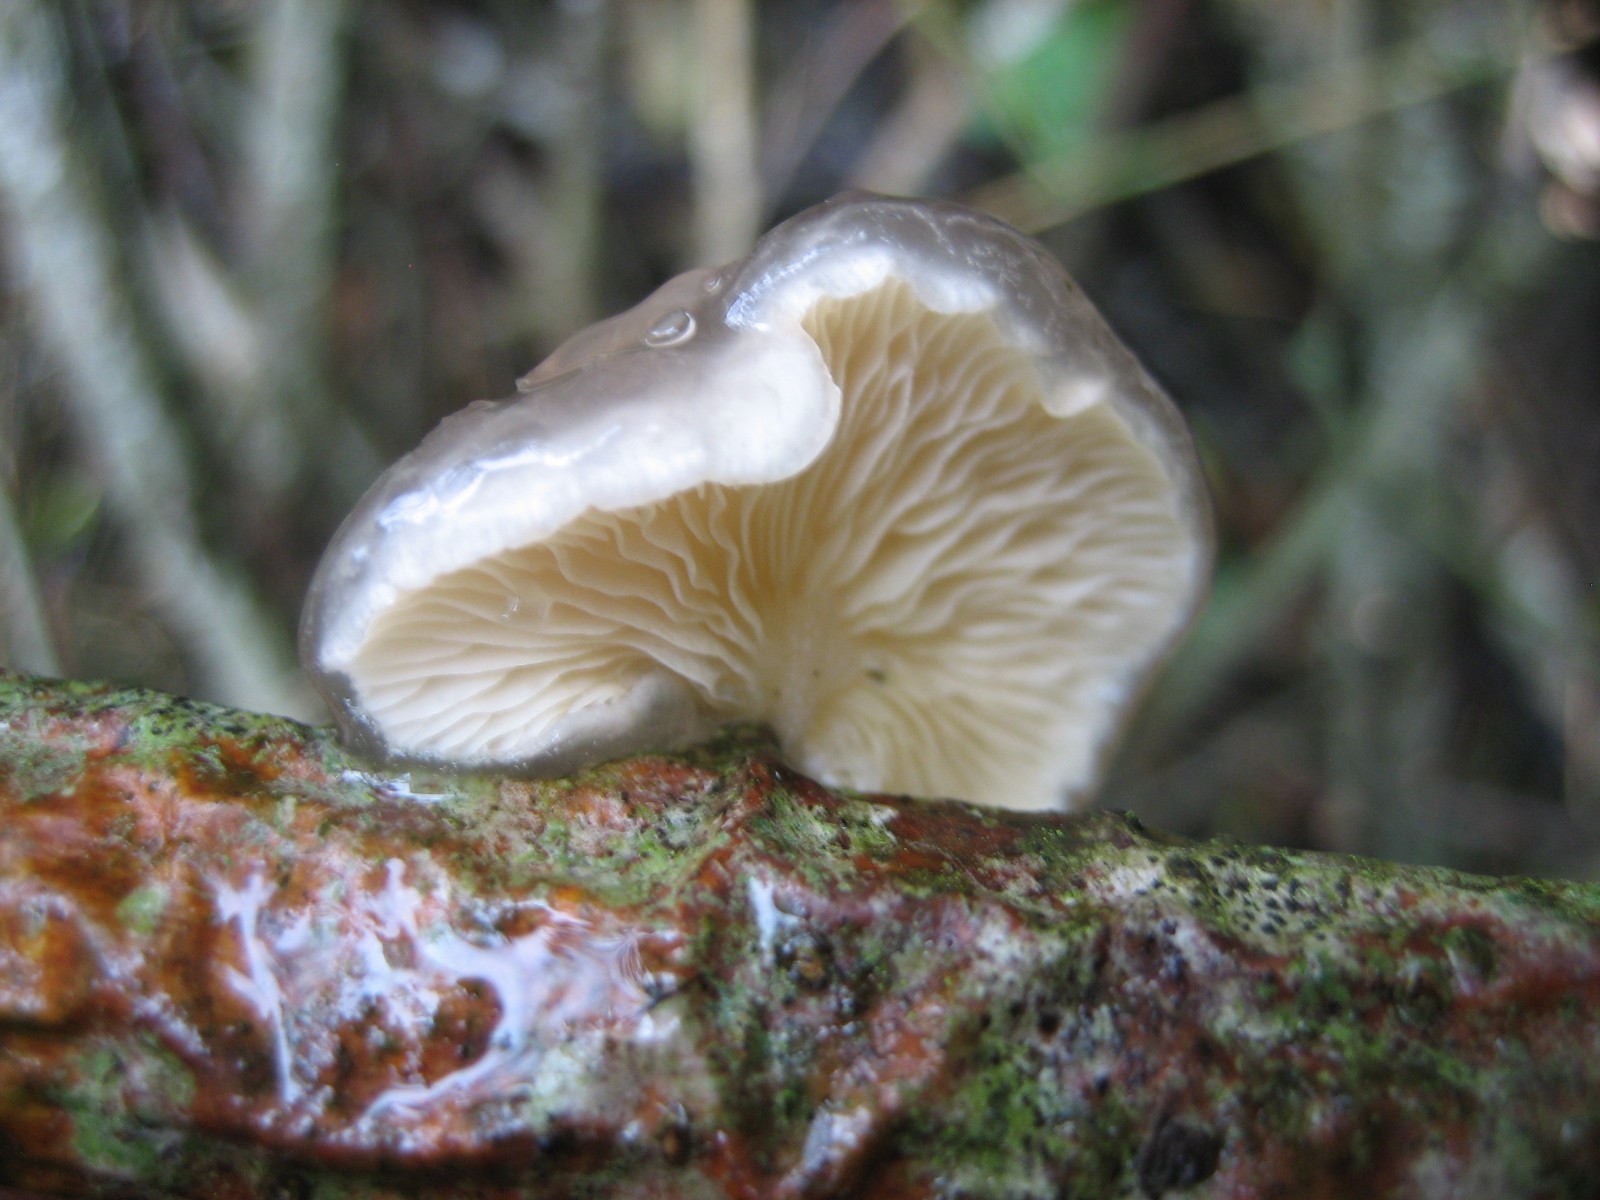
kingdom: Fungi
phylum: Basidiomycota
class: Agaricomycetes
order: Agaricales
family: Pleurotaceae
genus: Hohenbuehelia
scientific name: Hohenbuehelia mastrucata
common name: skællet filthat
